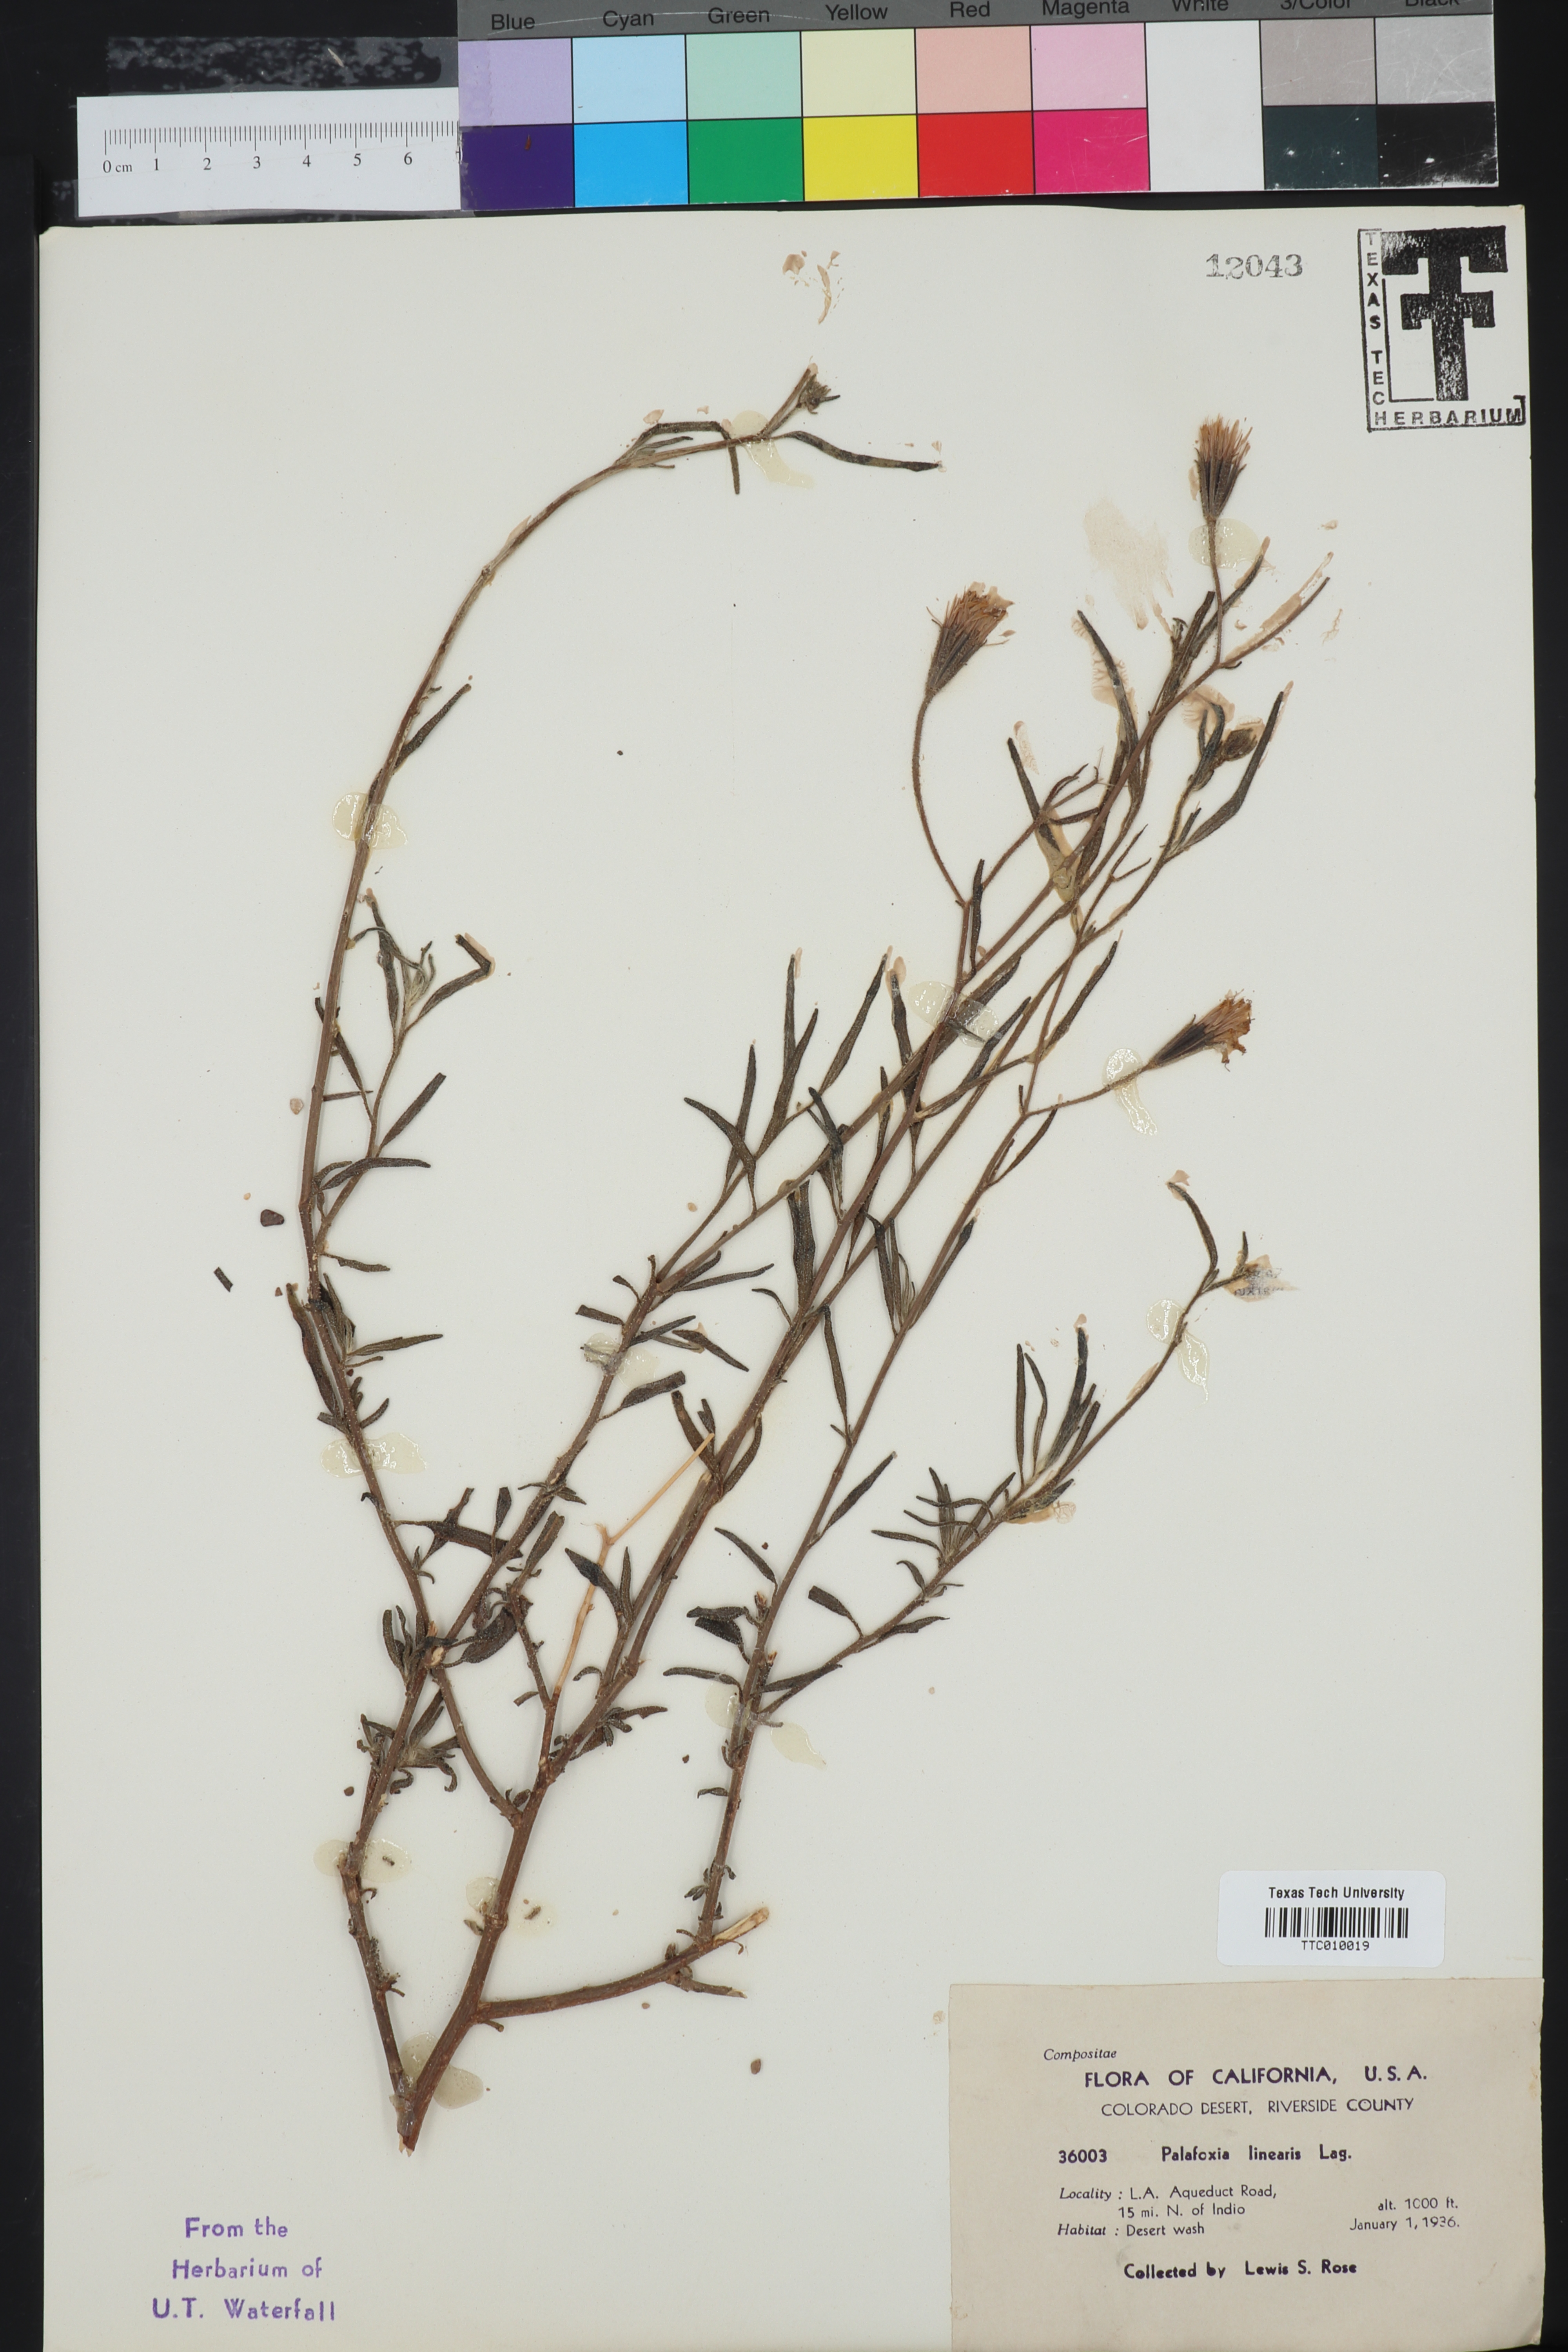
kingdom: Plantae
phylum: Tracheophyta
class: Magnoliopsida
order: Asterales
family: Asteraceae
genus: Palafoxia
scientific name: Palafoxia linearis
